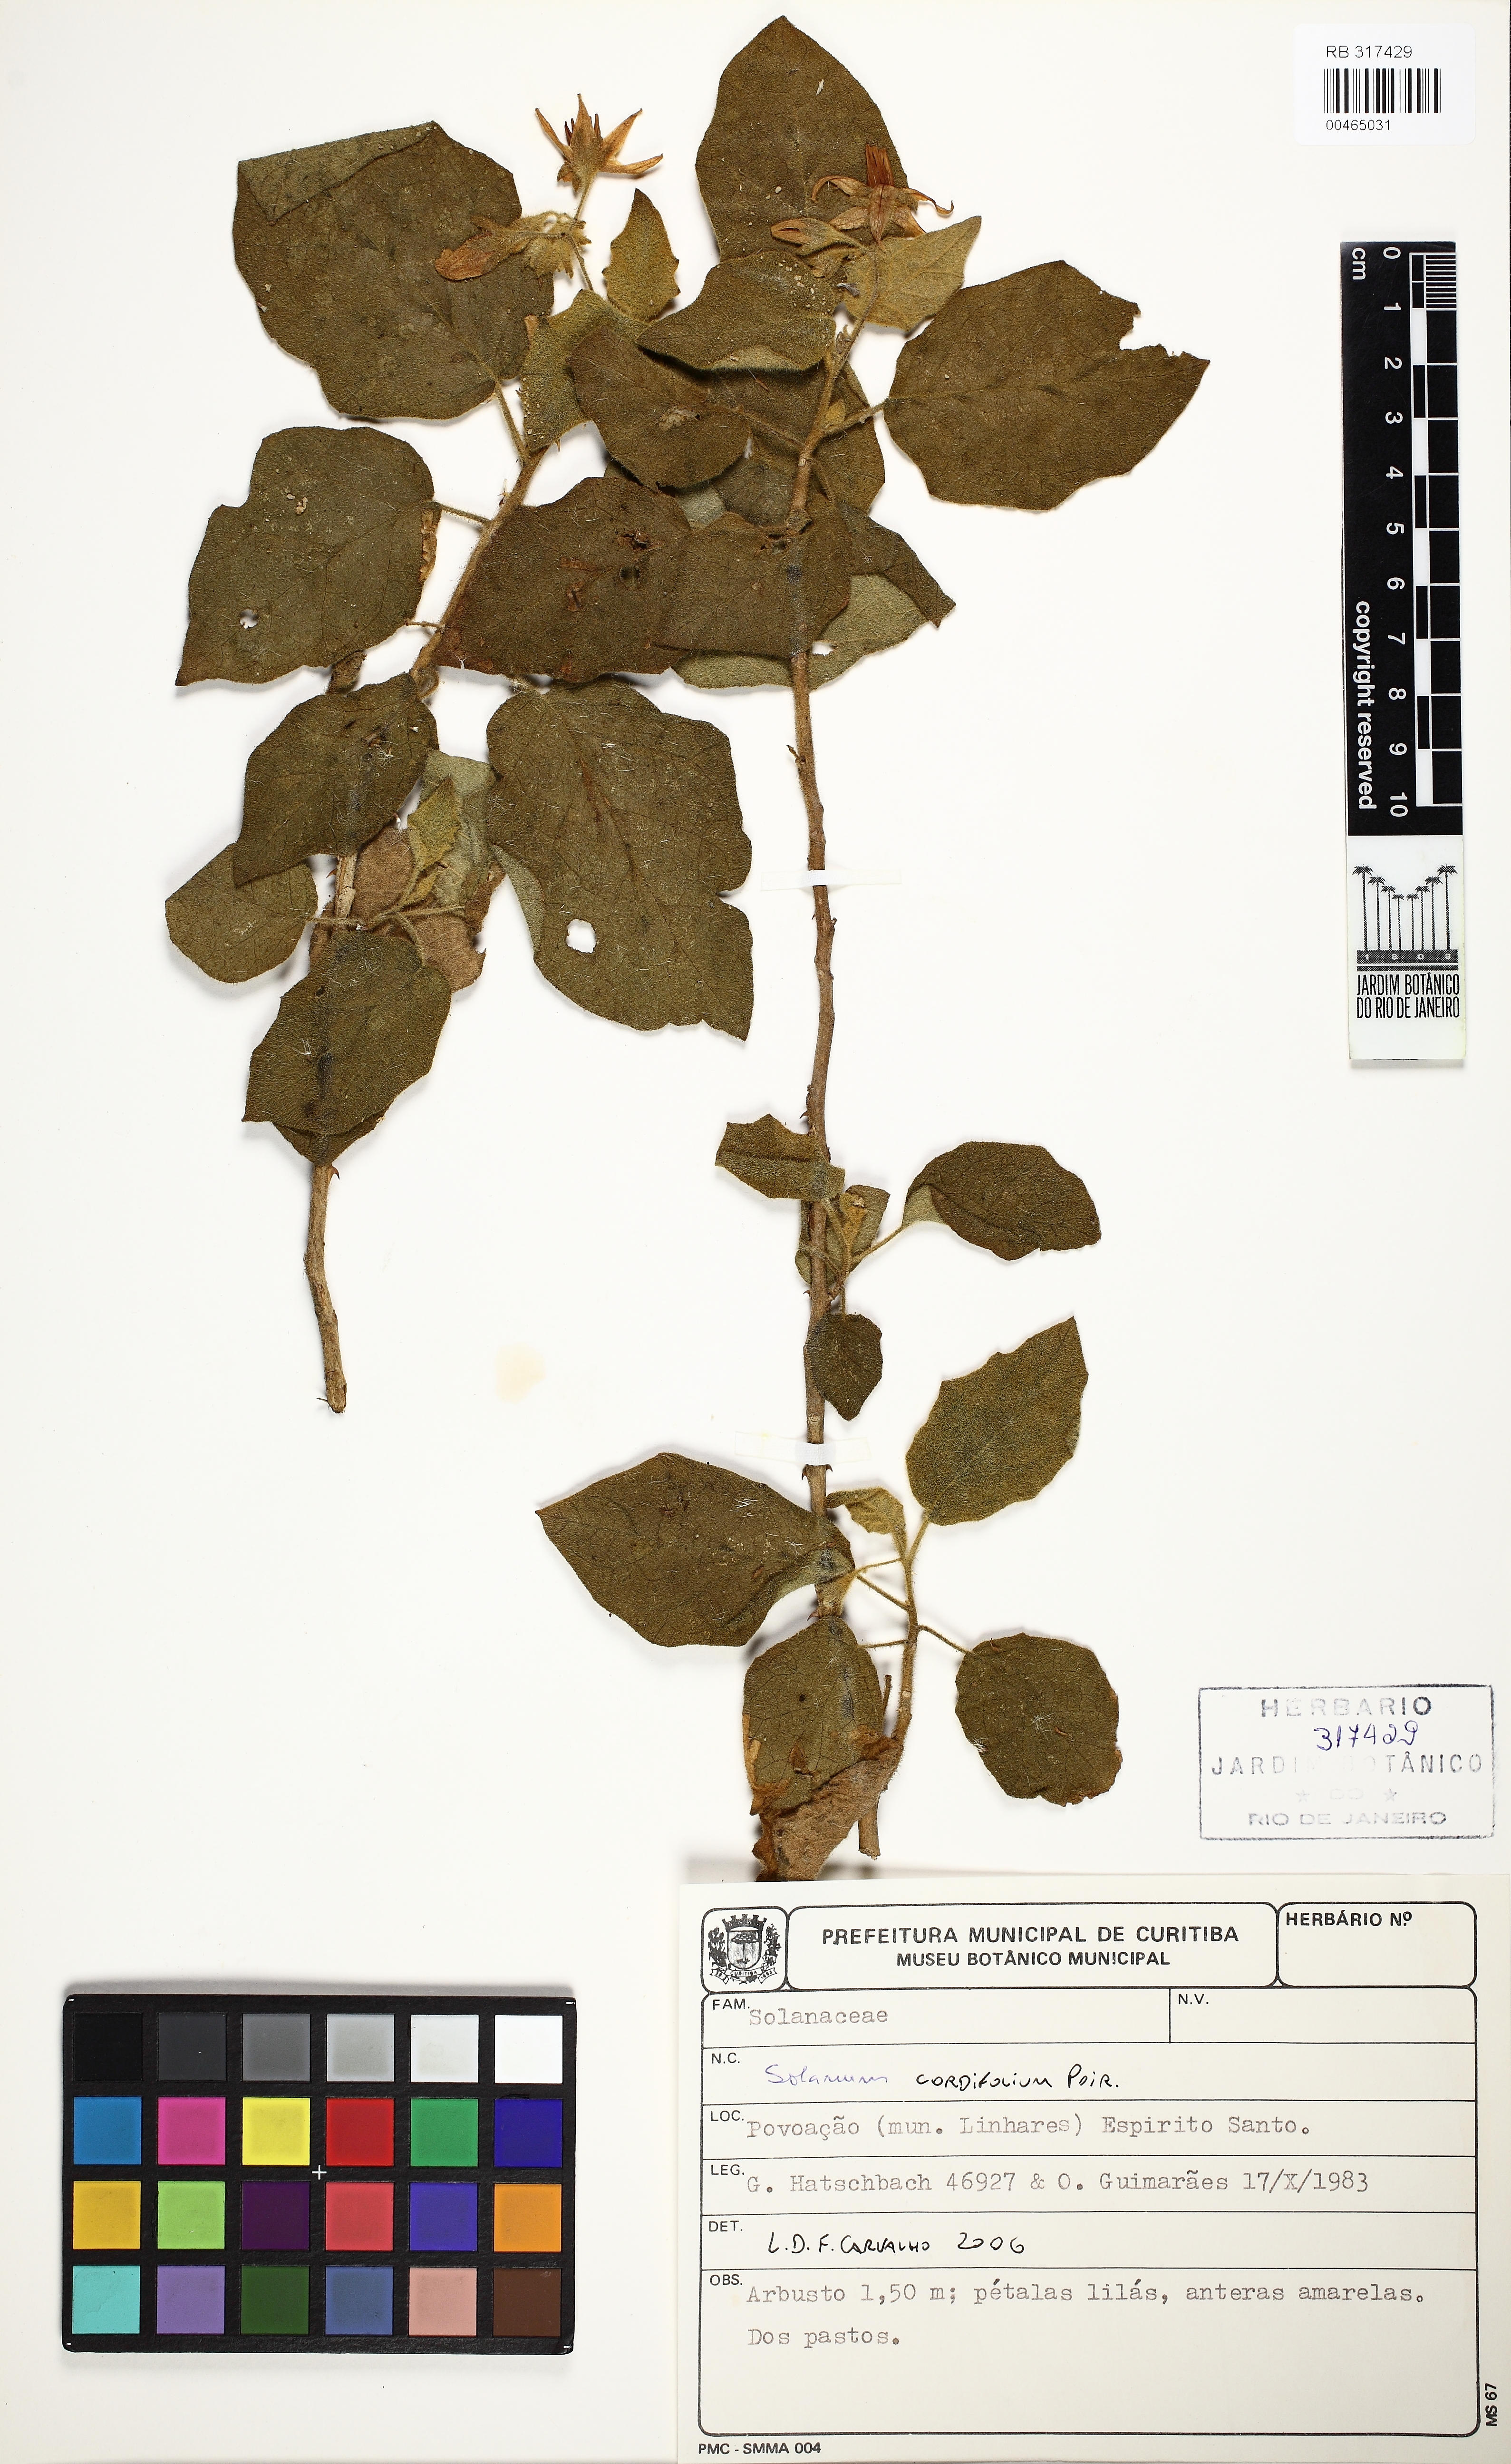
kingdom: Plantae
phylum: Tracheophyta
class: Magnoliopsida
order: Solanales
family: Solanaceae
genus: Solanum
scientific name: Solanum cordifolium
